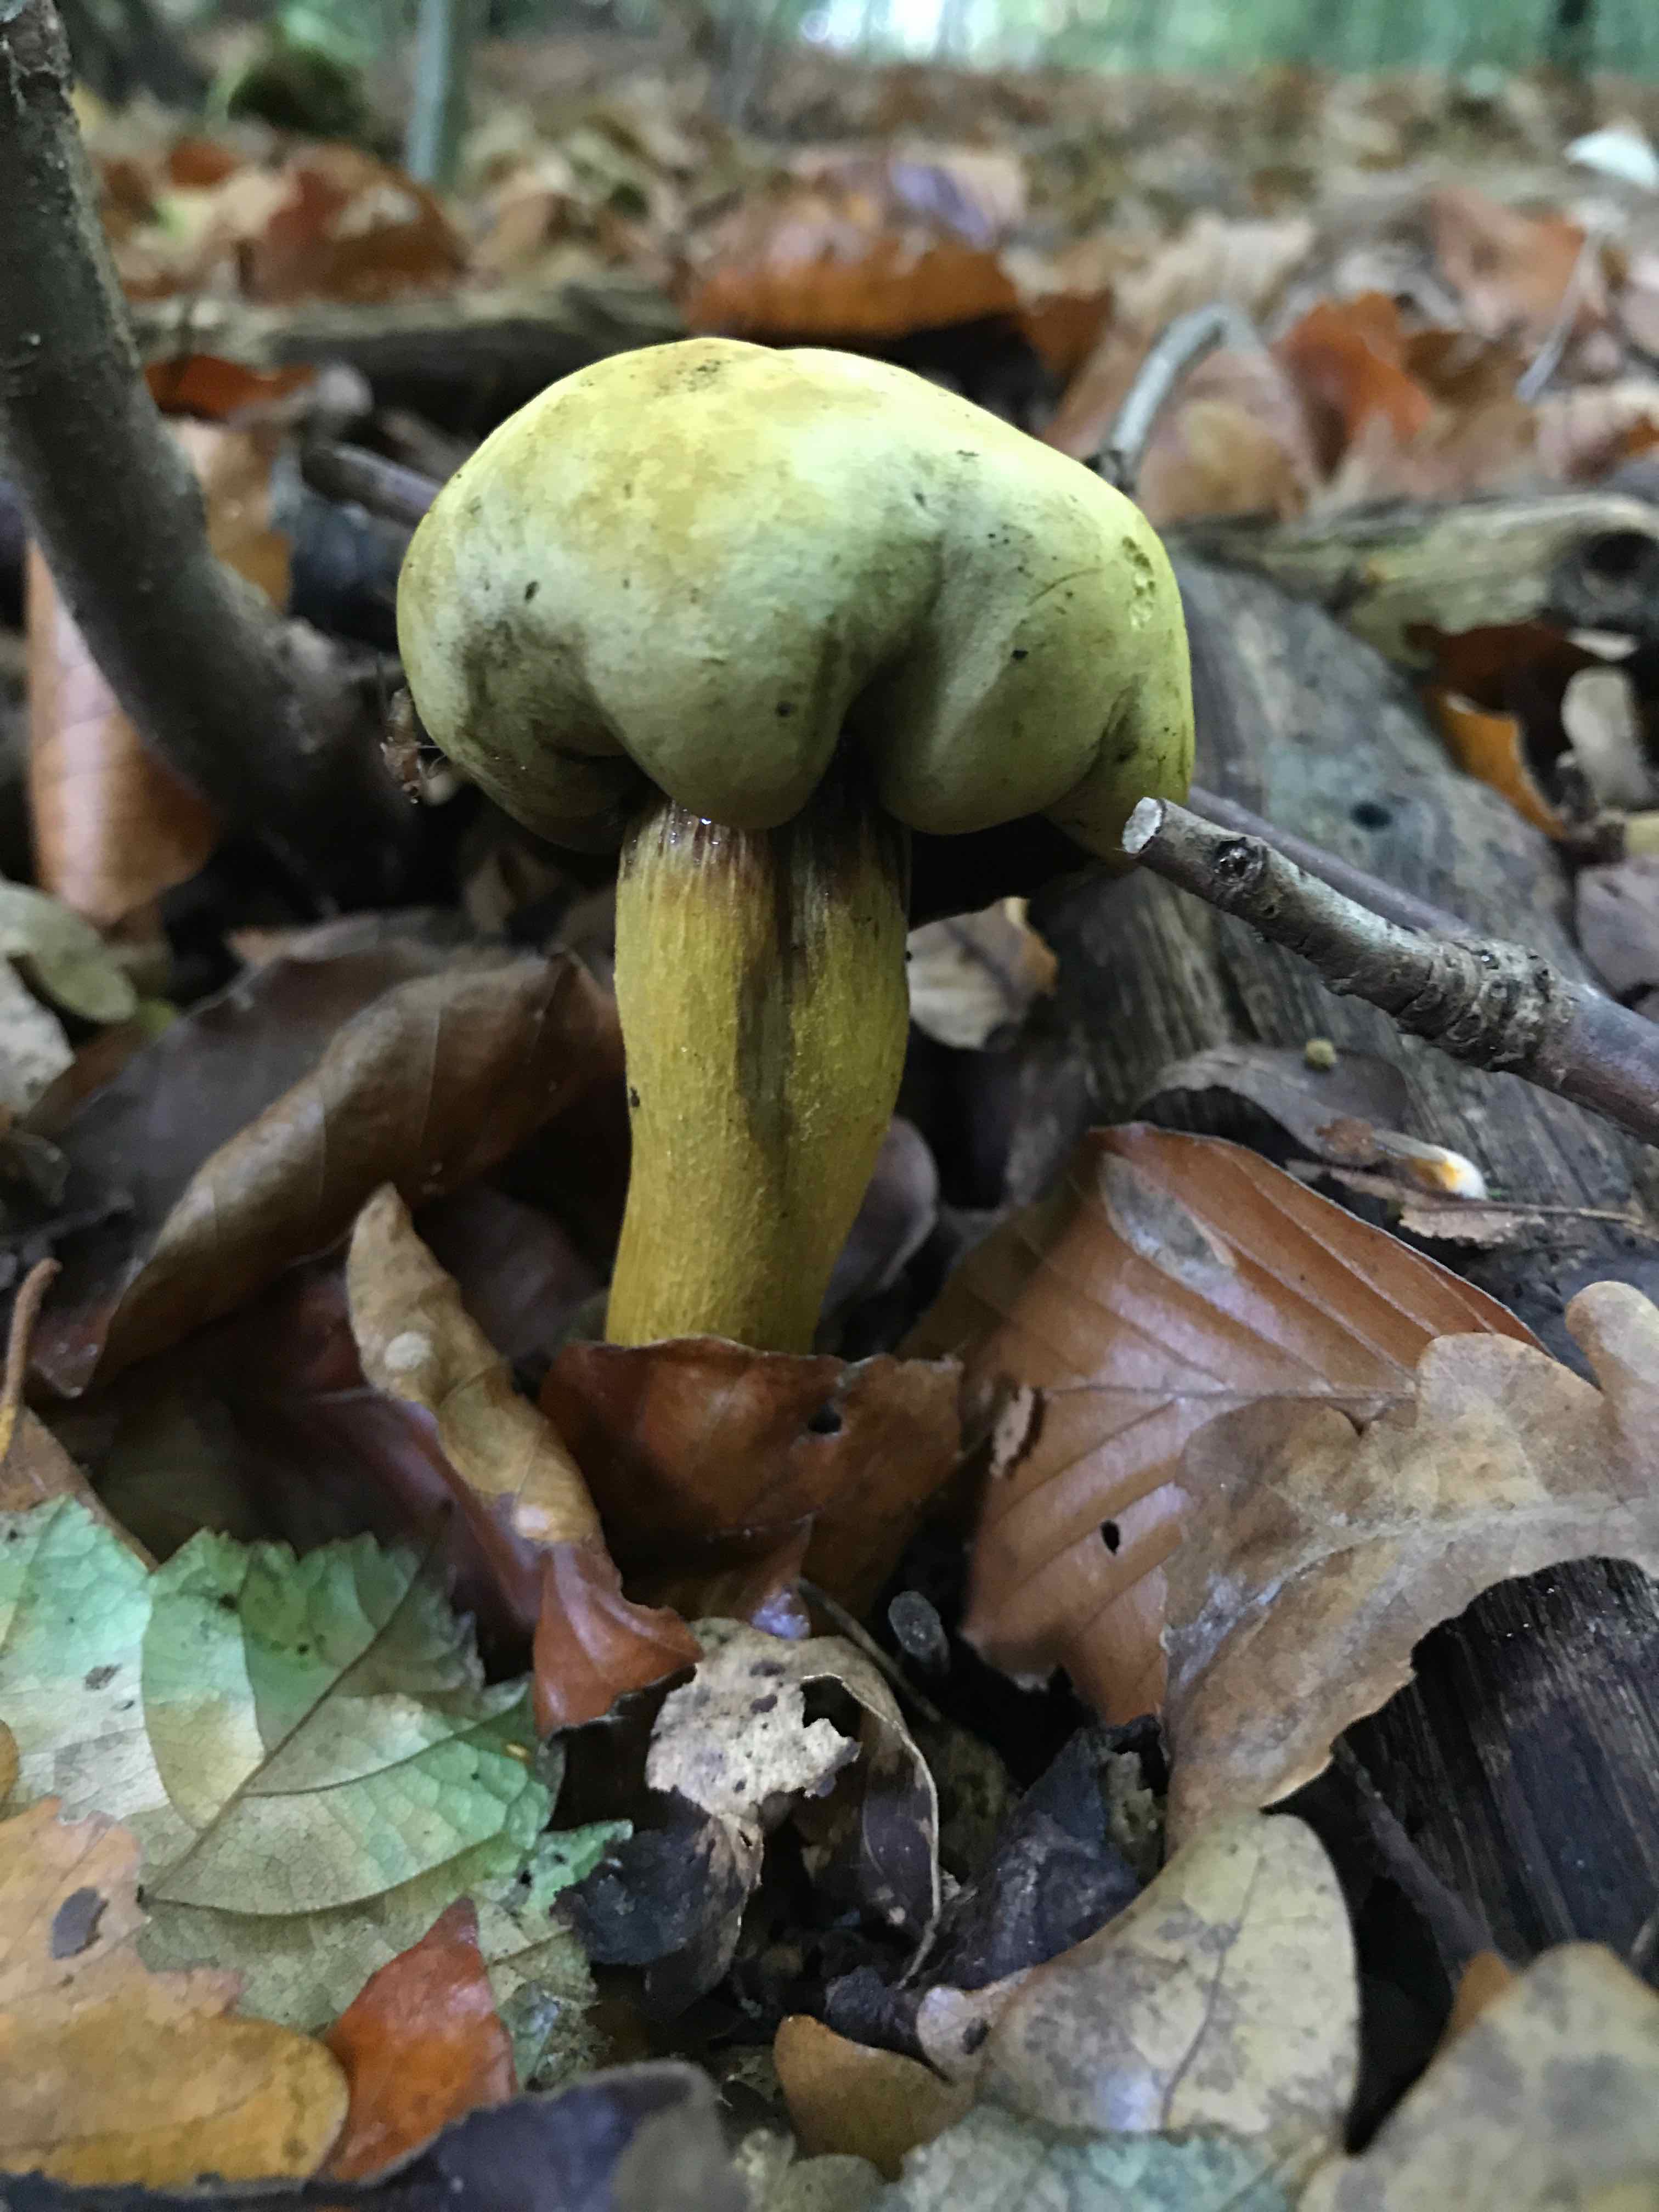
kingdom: Fungi
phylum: Basidiomycota
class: Agaricomycetes
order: Agaricales
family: Tricholomataceae
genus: Tricholoma
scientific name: Tricholoma sulphureum
